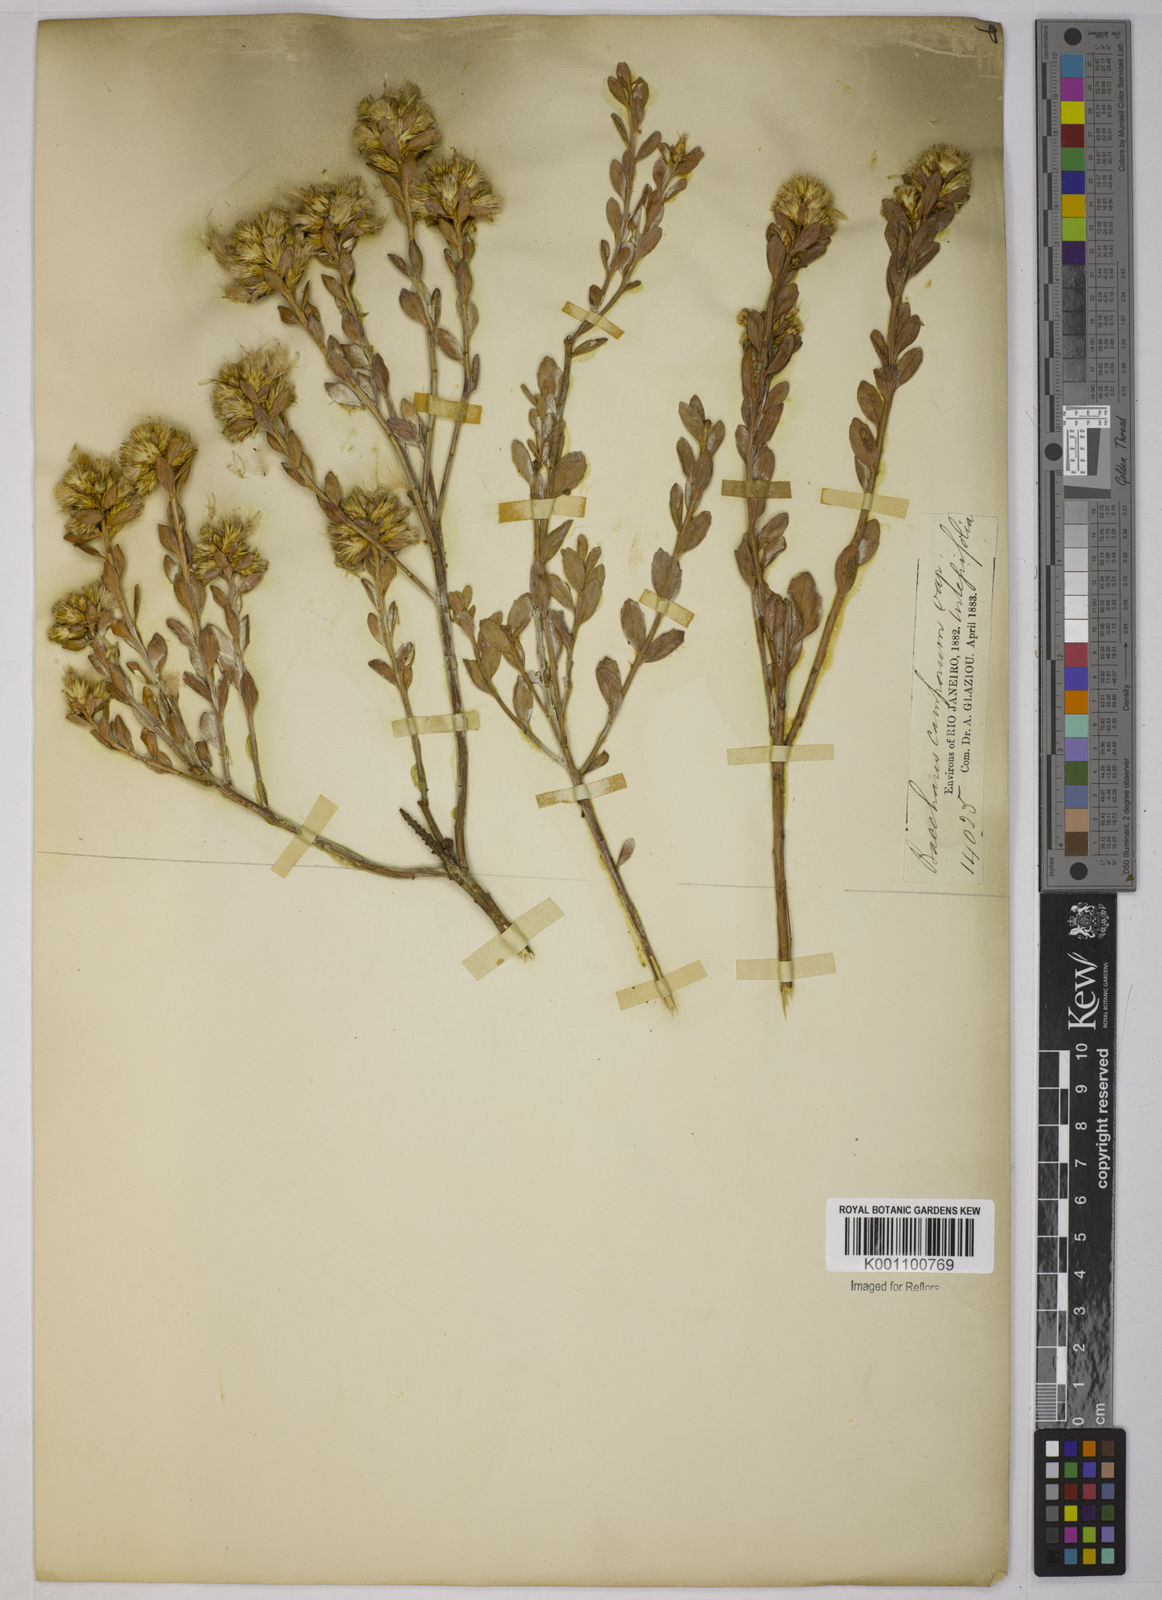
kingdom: Plantae
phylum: Tracheophyta
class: Magnoliopsida
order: Asterales
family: Asteraceae
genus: Baccharis
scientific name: Baccharis camporum
